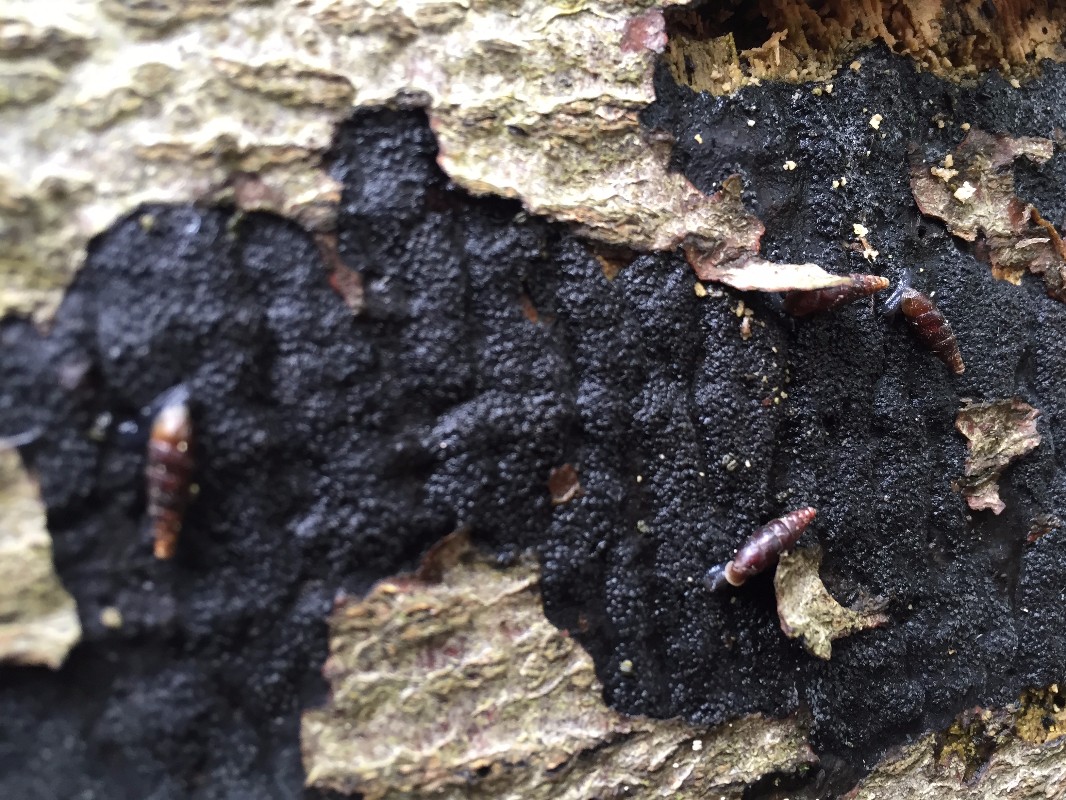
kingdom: Fungi
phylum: Ascomycota
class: Sordariomycetes
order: Xylariales
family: Diatrypaceae
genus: Eutypa
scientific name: Eutypa spinosa
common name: grov kulskorpe
